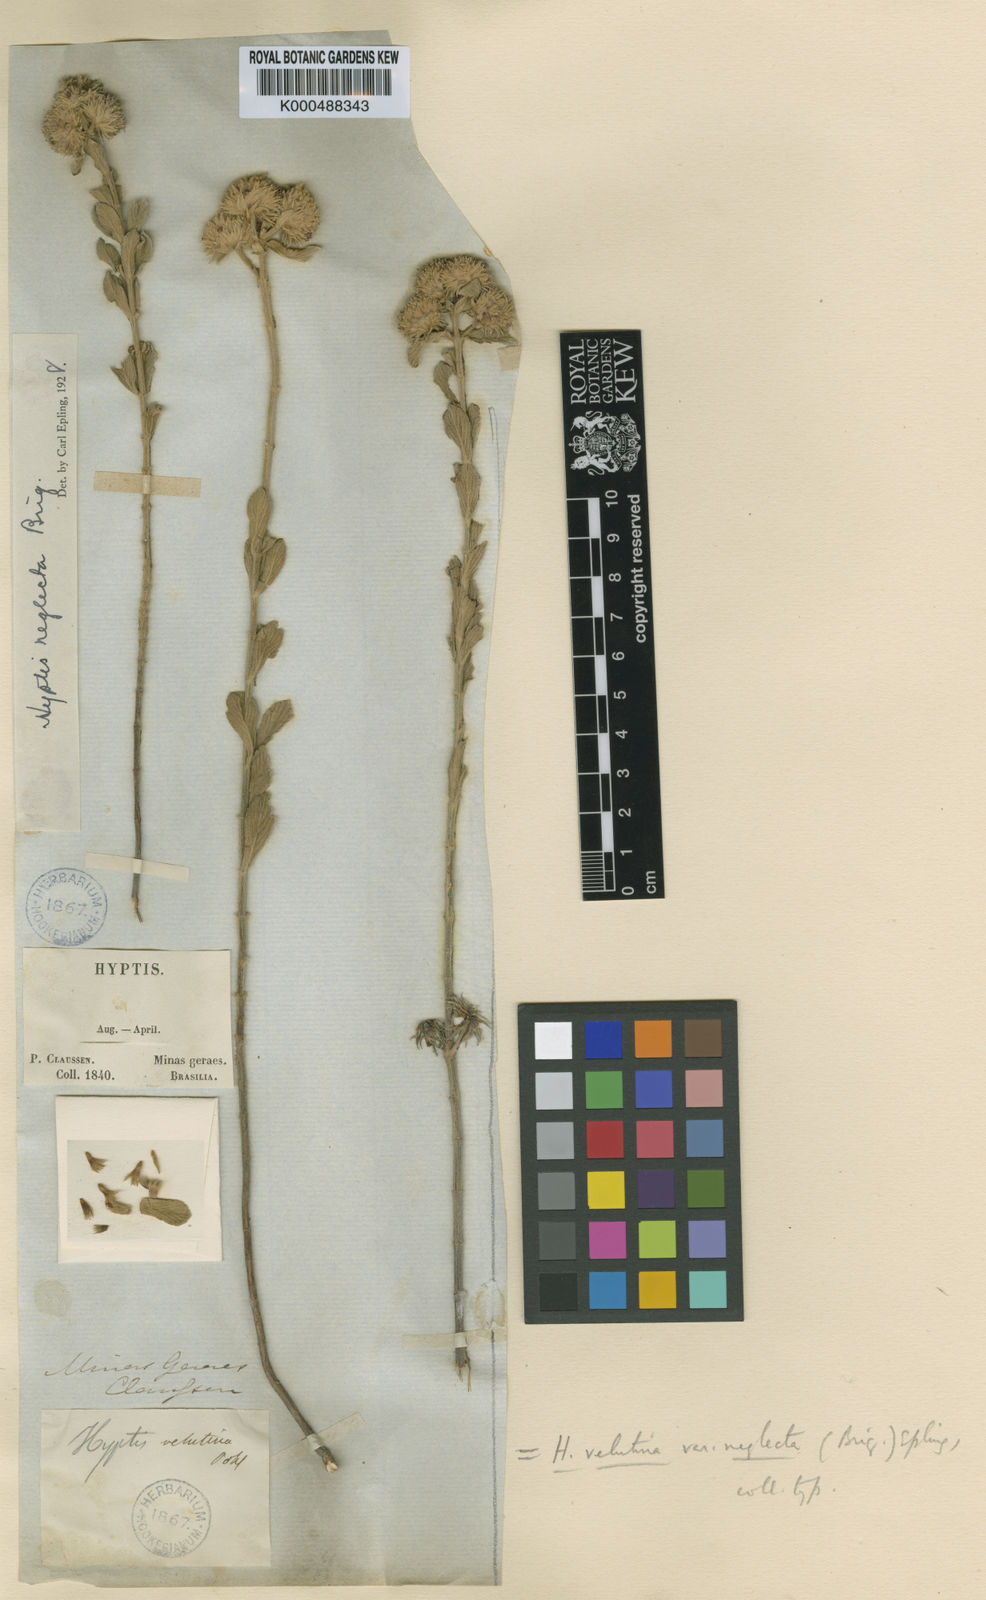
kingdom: Plantae
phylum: Tracheophyta
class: Magnoliopsida
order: Lamiales
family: Lamiaceae
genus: Hyptis
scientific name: Hyptis adamantium
